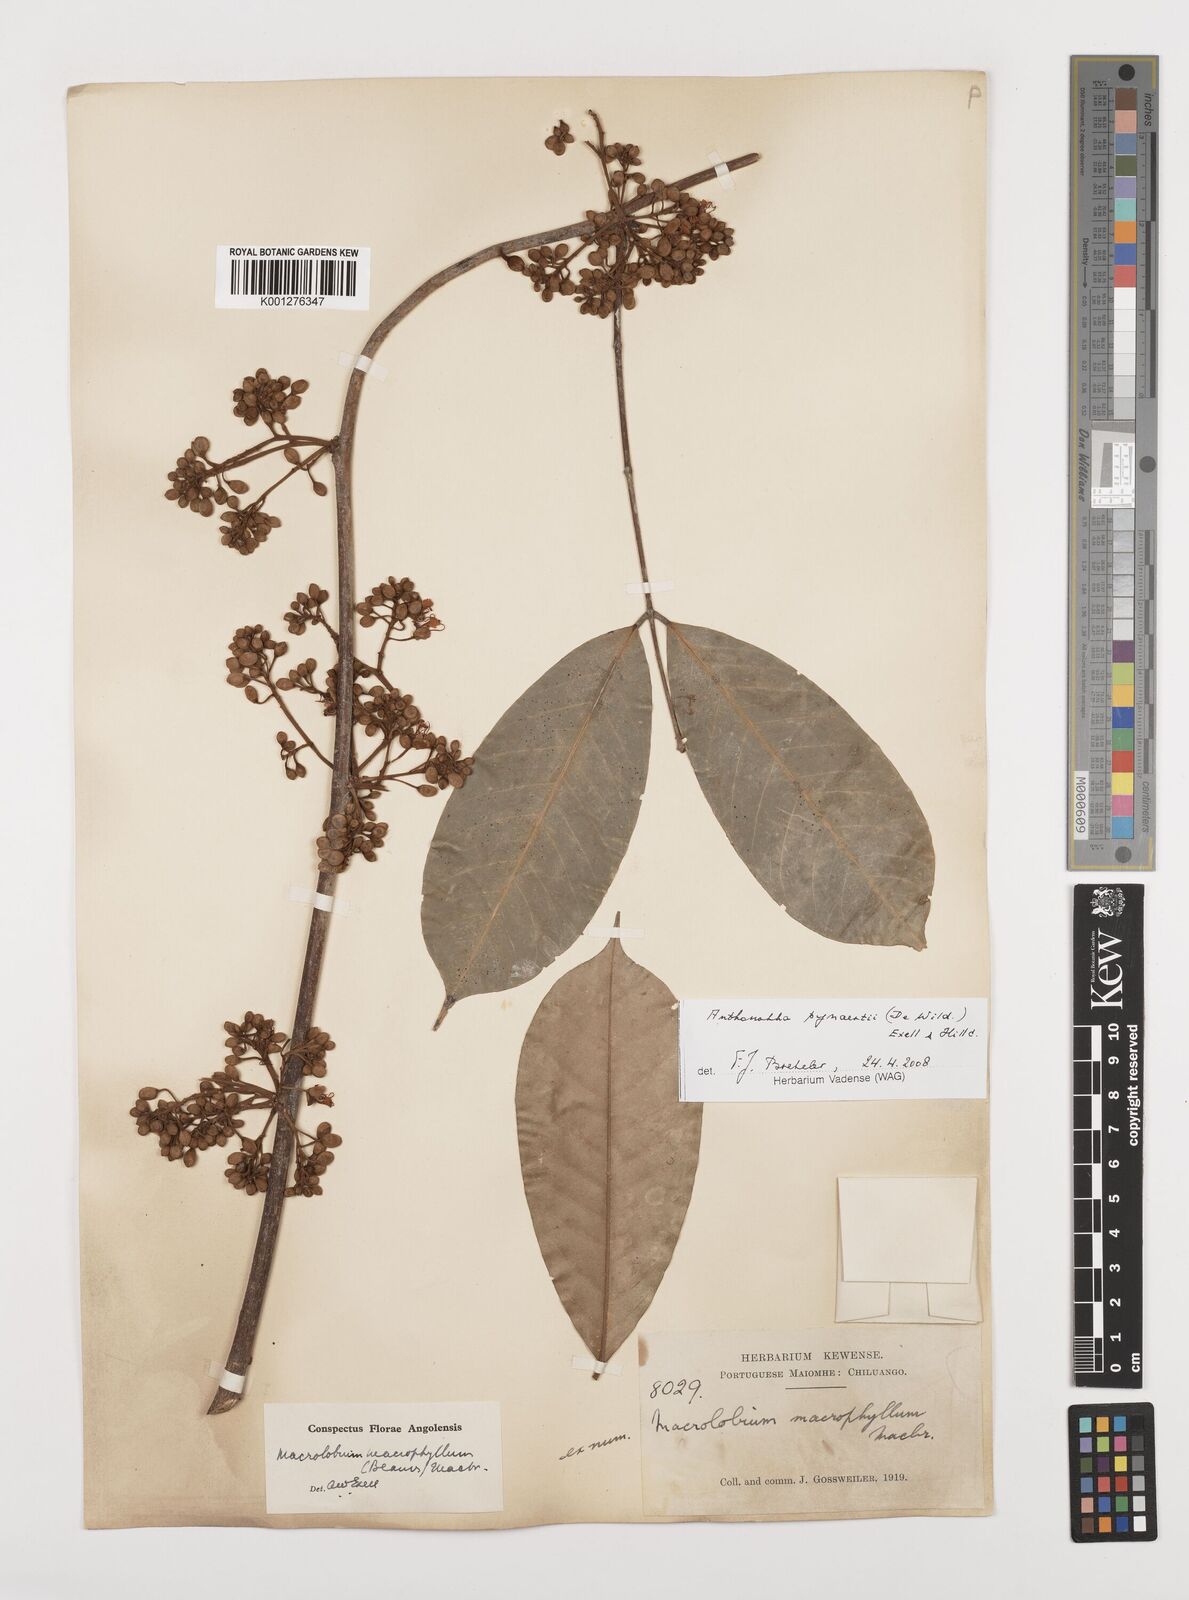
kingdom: Plantae
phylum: Tracheophyta
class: Magnoliopsida
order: Fabales
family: Fabaceae
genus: Anthonotha
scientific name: Anthonotha pynaertii
